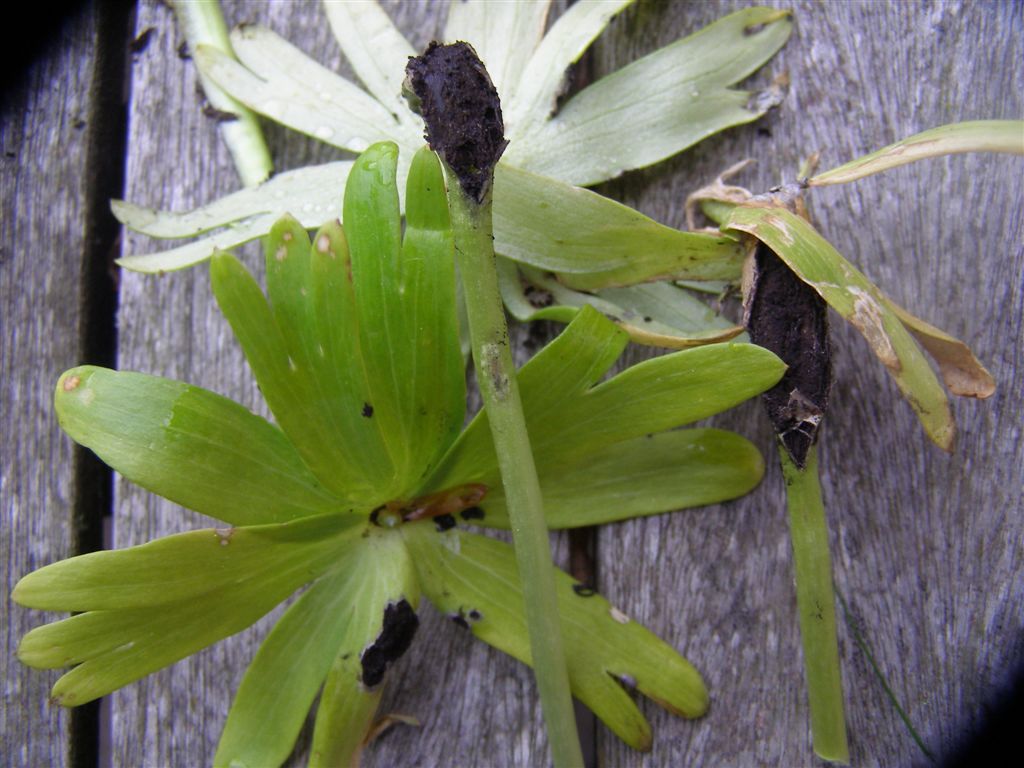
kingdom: Fungi
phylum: Basidiomycota
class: Ustilaginomycetes
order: Urocystidales
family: Urocystidaceae
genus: Urocystis
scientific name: Urocystis eranthidis
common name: erantis-brand
